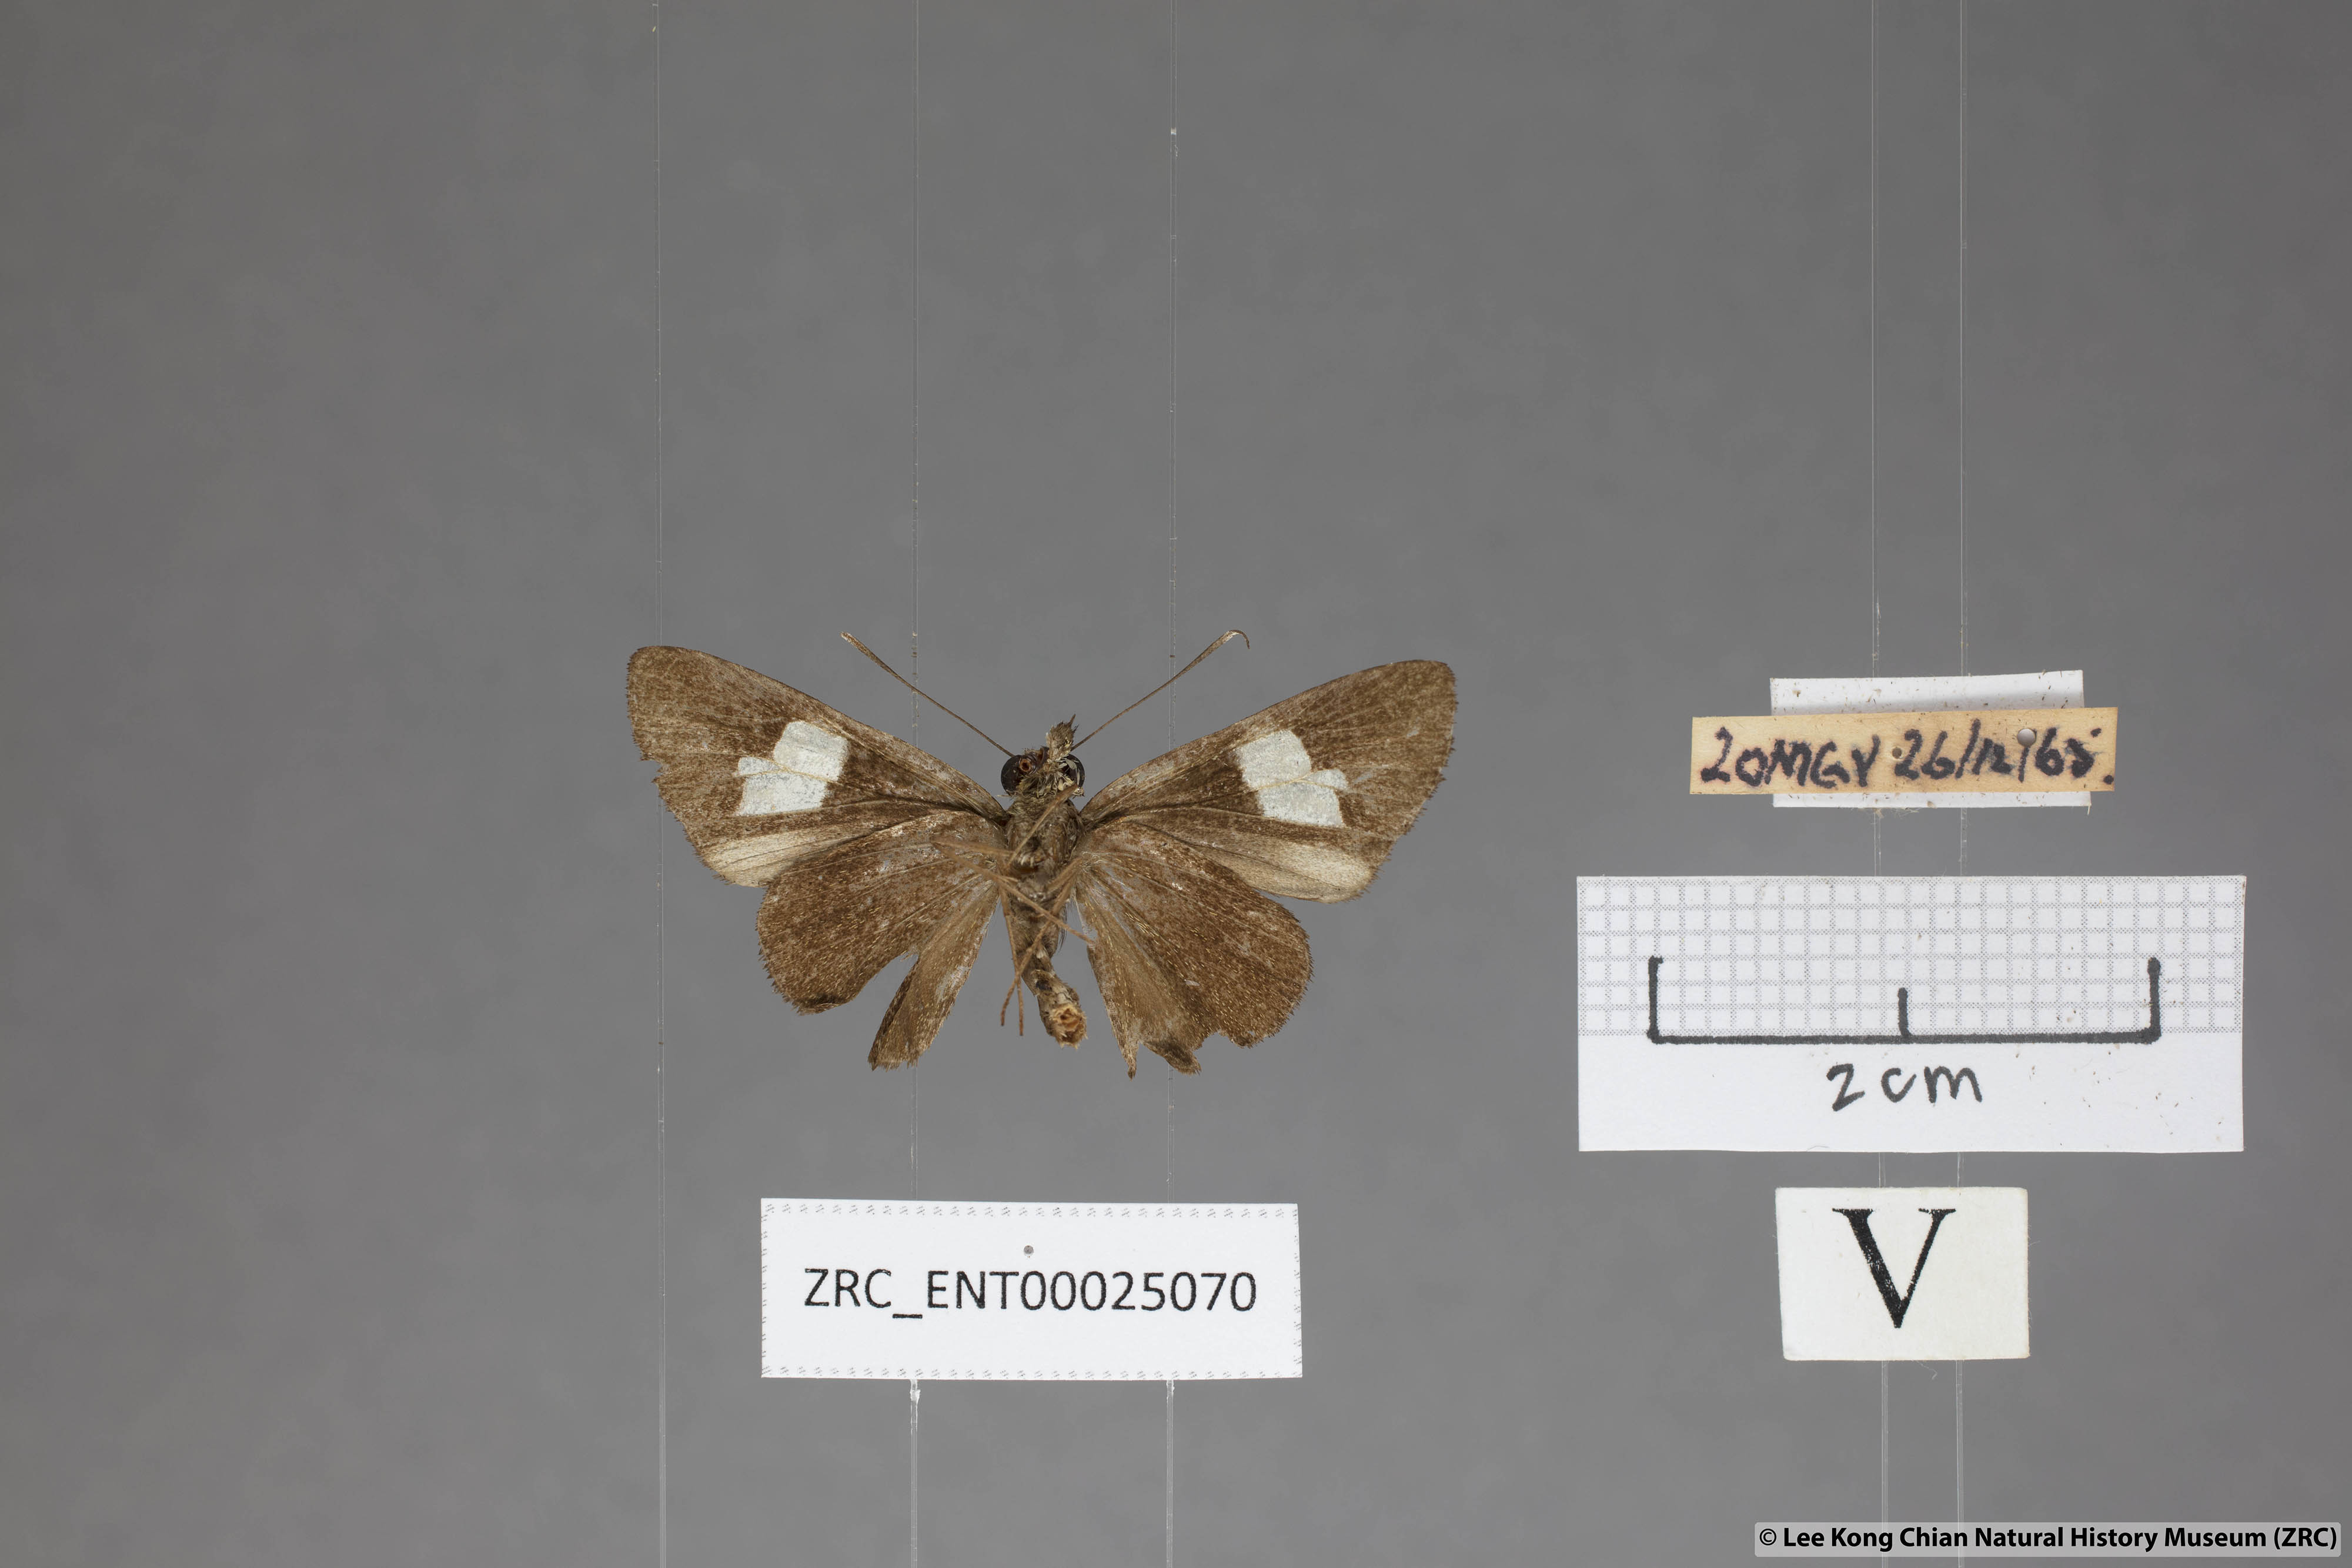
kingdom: Animalia
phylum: Arthropoda
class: Insecta
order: Lepidoptera
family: Hesperiidae
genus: Oerane
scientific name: Oerane microthyrus
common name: White club flitter
